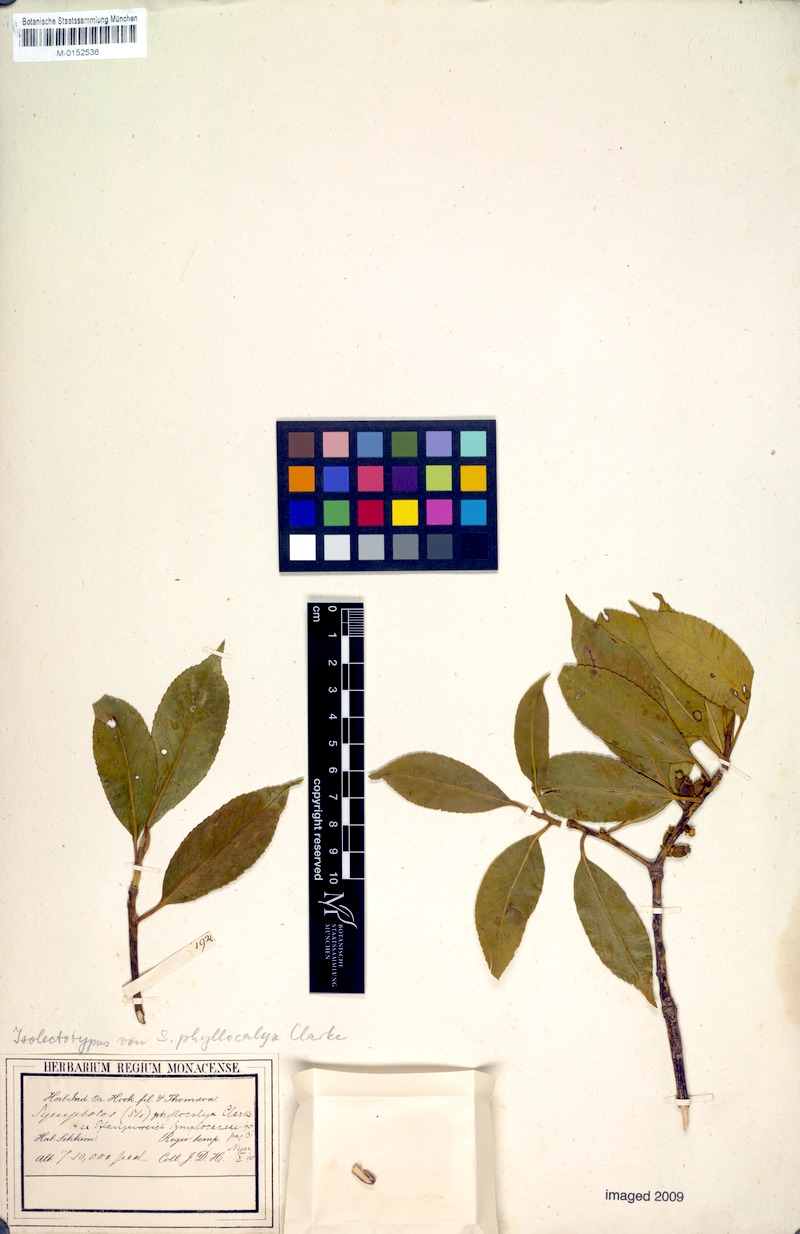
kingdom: Plantae
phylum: Tracheophyta
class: Magnoliopsida
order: Ericales
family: Symplocaceae
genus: Symplocos
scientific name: Symplocos nakaharae
